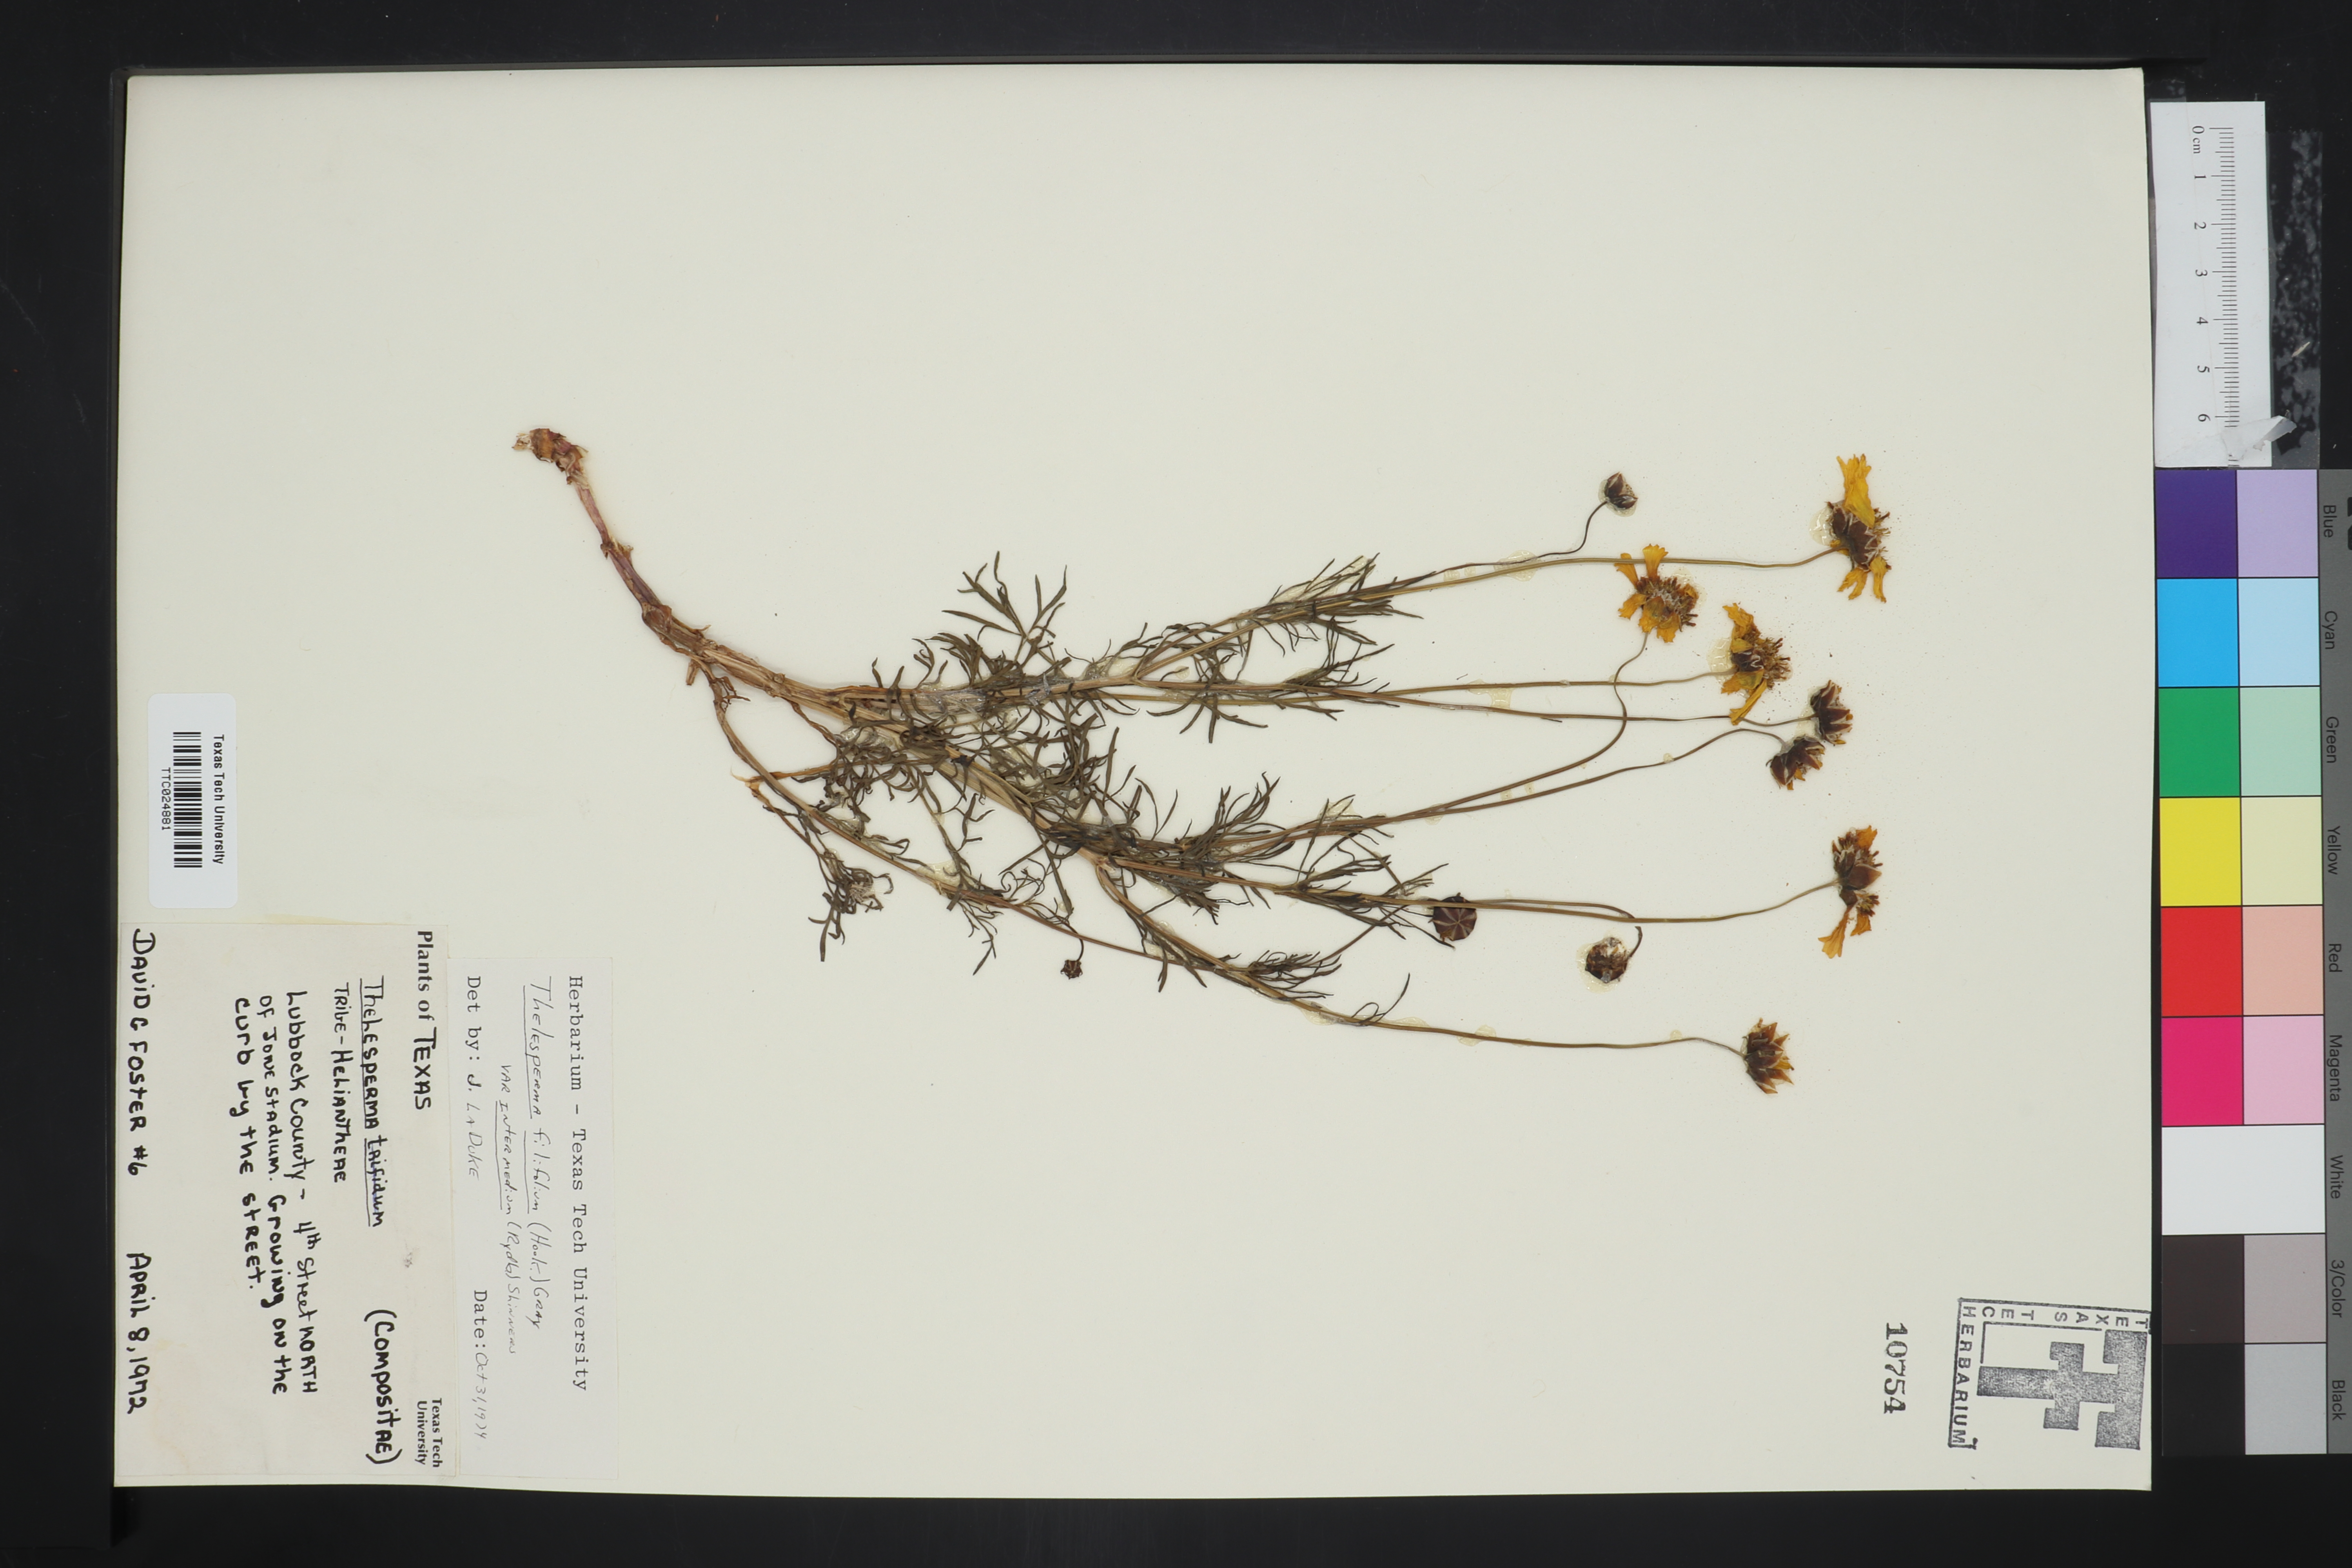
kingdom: Plantae
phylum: Tracheophyta
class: Magnoliopsida
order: Asterales
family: Asteraceae
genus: Thelesperma
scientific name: Thelesperma filifolium
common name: Stiff greenthread
